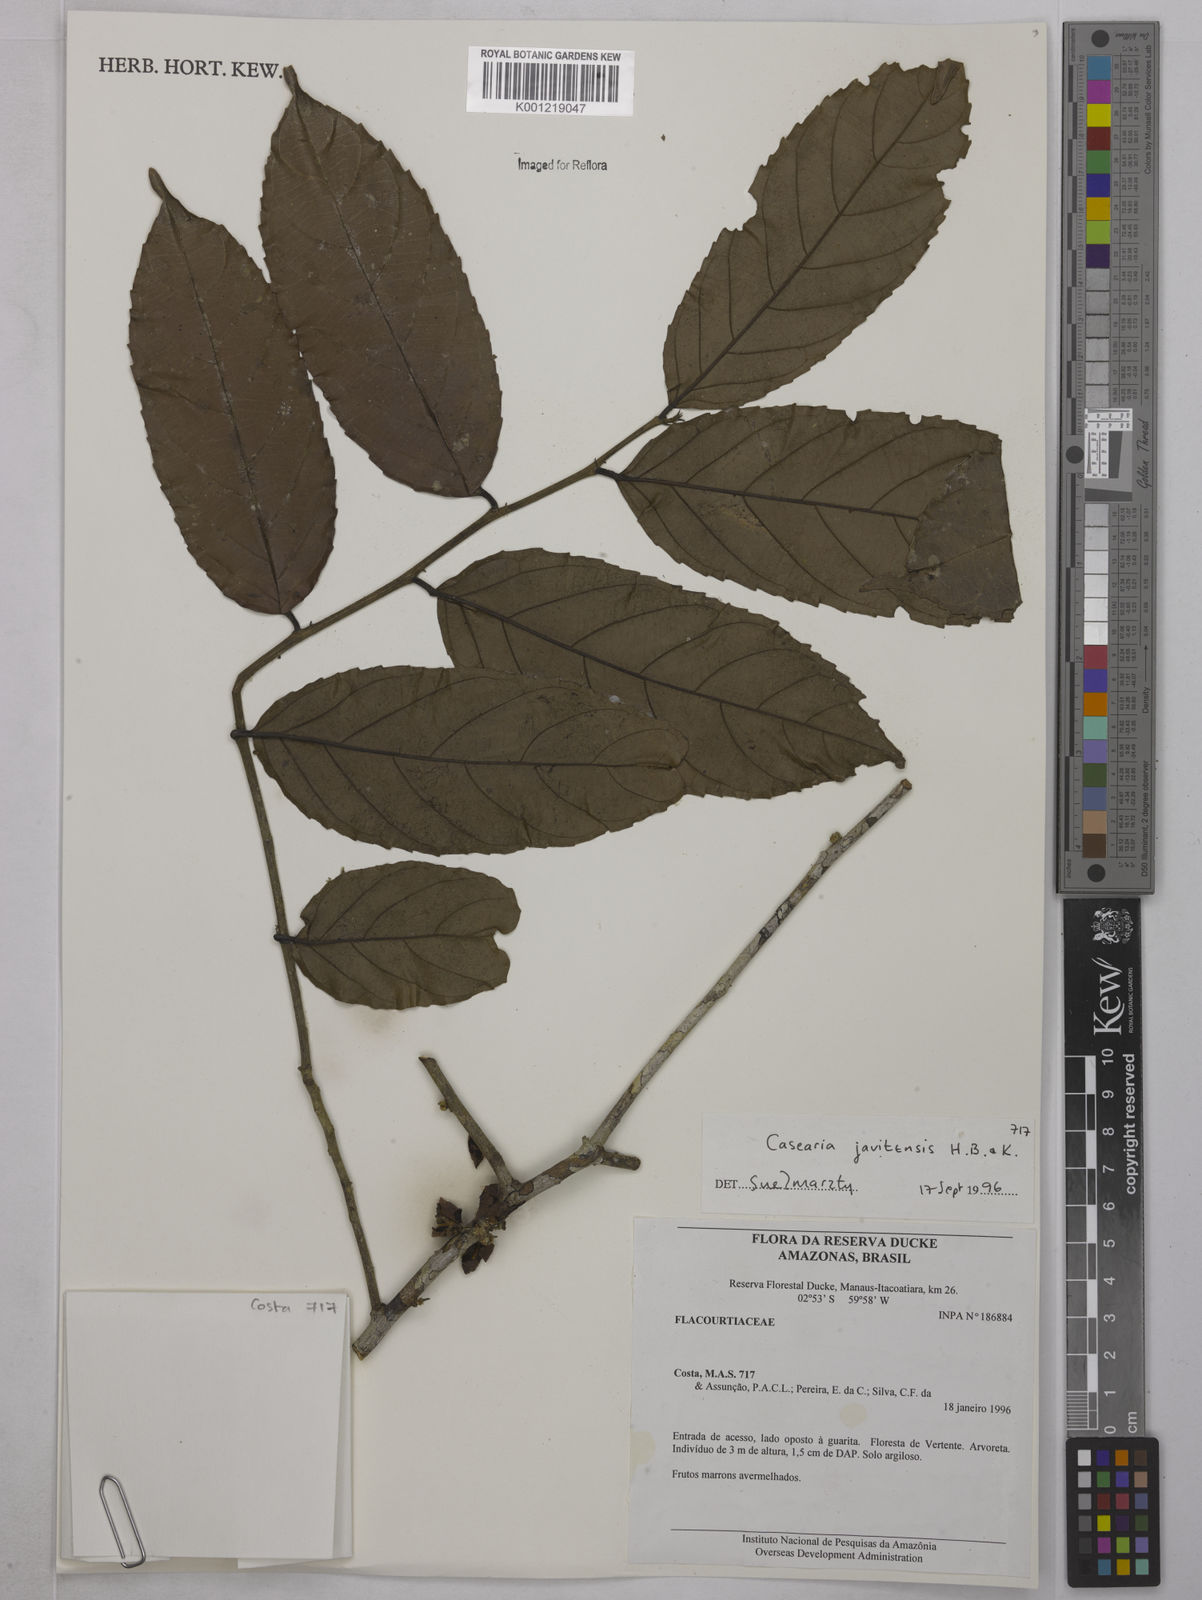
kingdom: Plantae
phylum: Tracheophyta
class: Magnoliopsida
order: Malpighiales
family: Salicaceae
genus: Piparea
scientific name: Piparea multiflora
